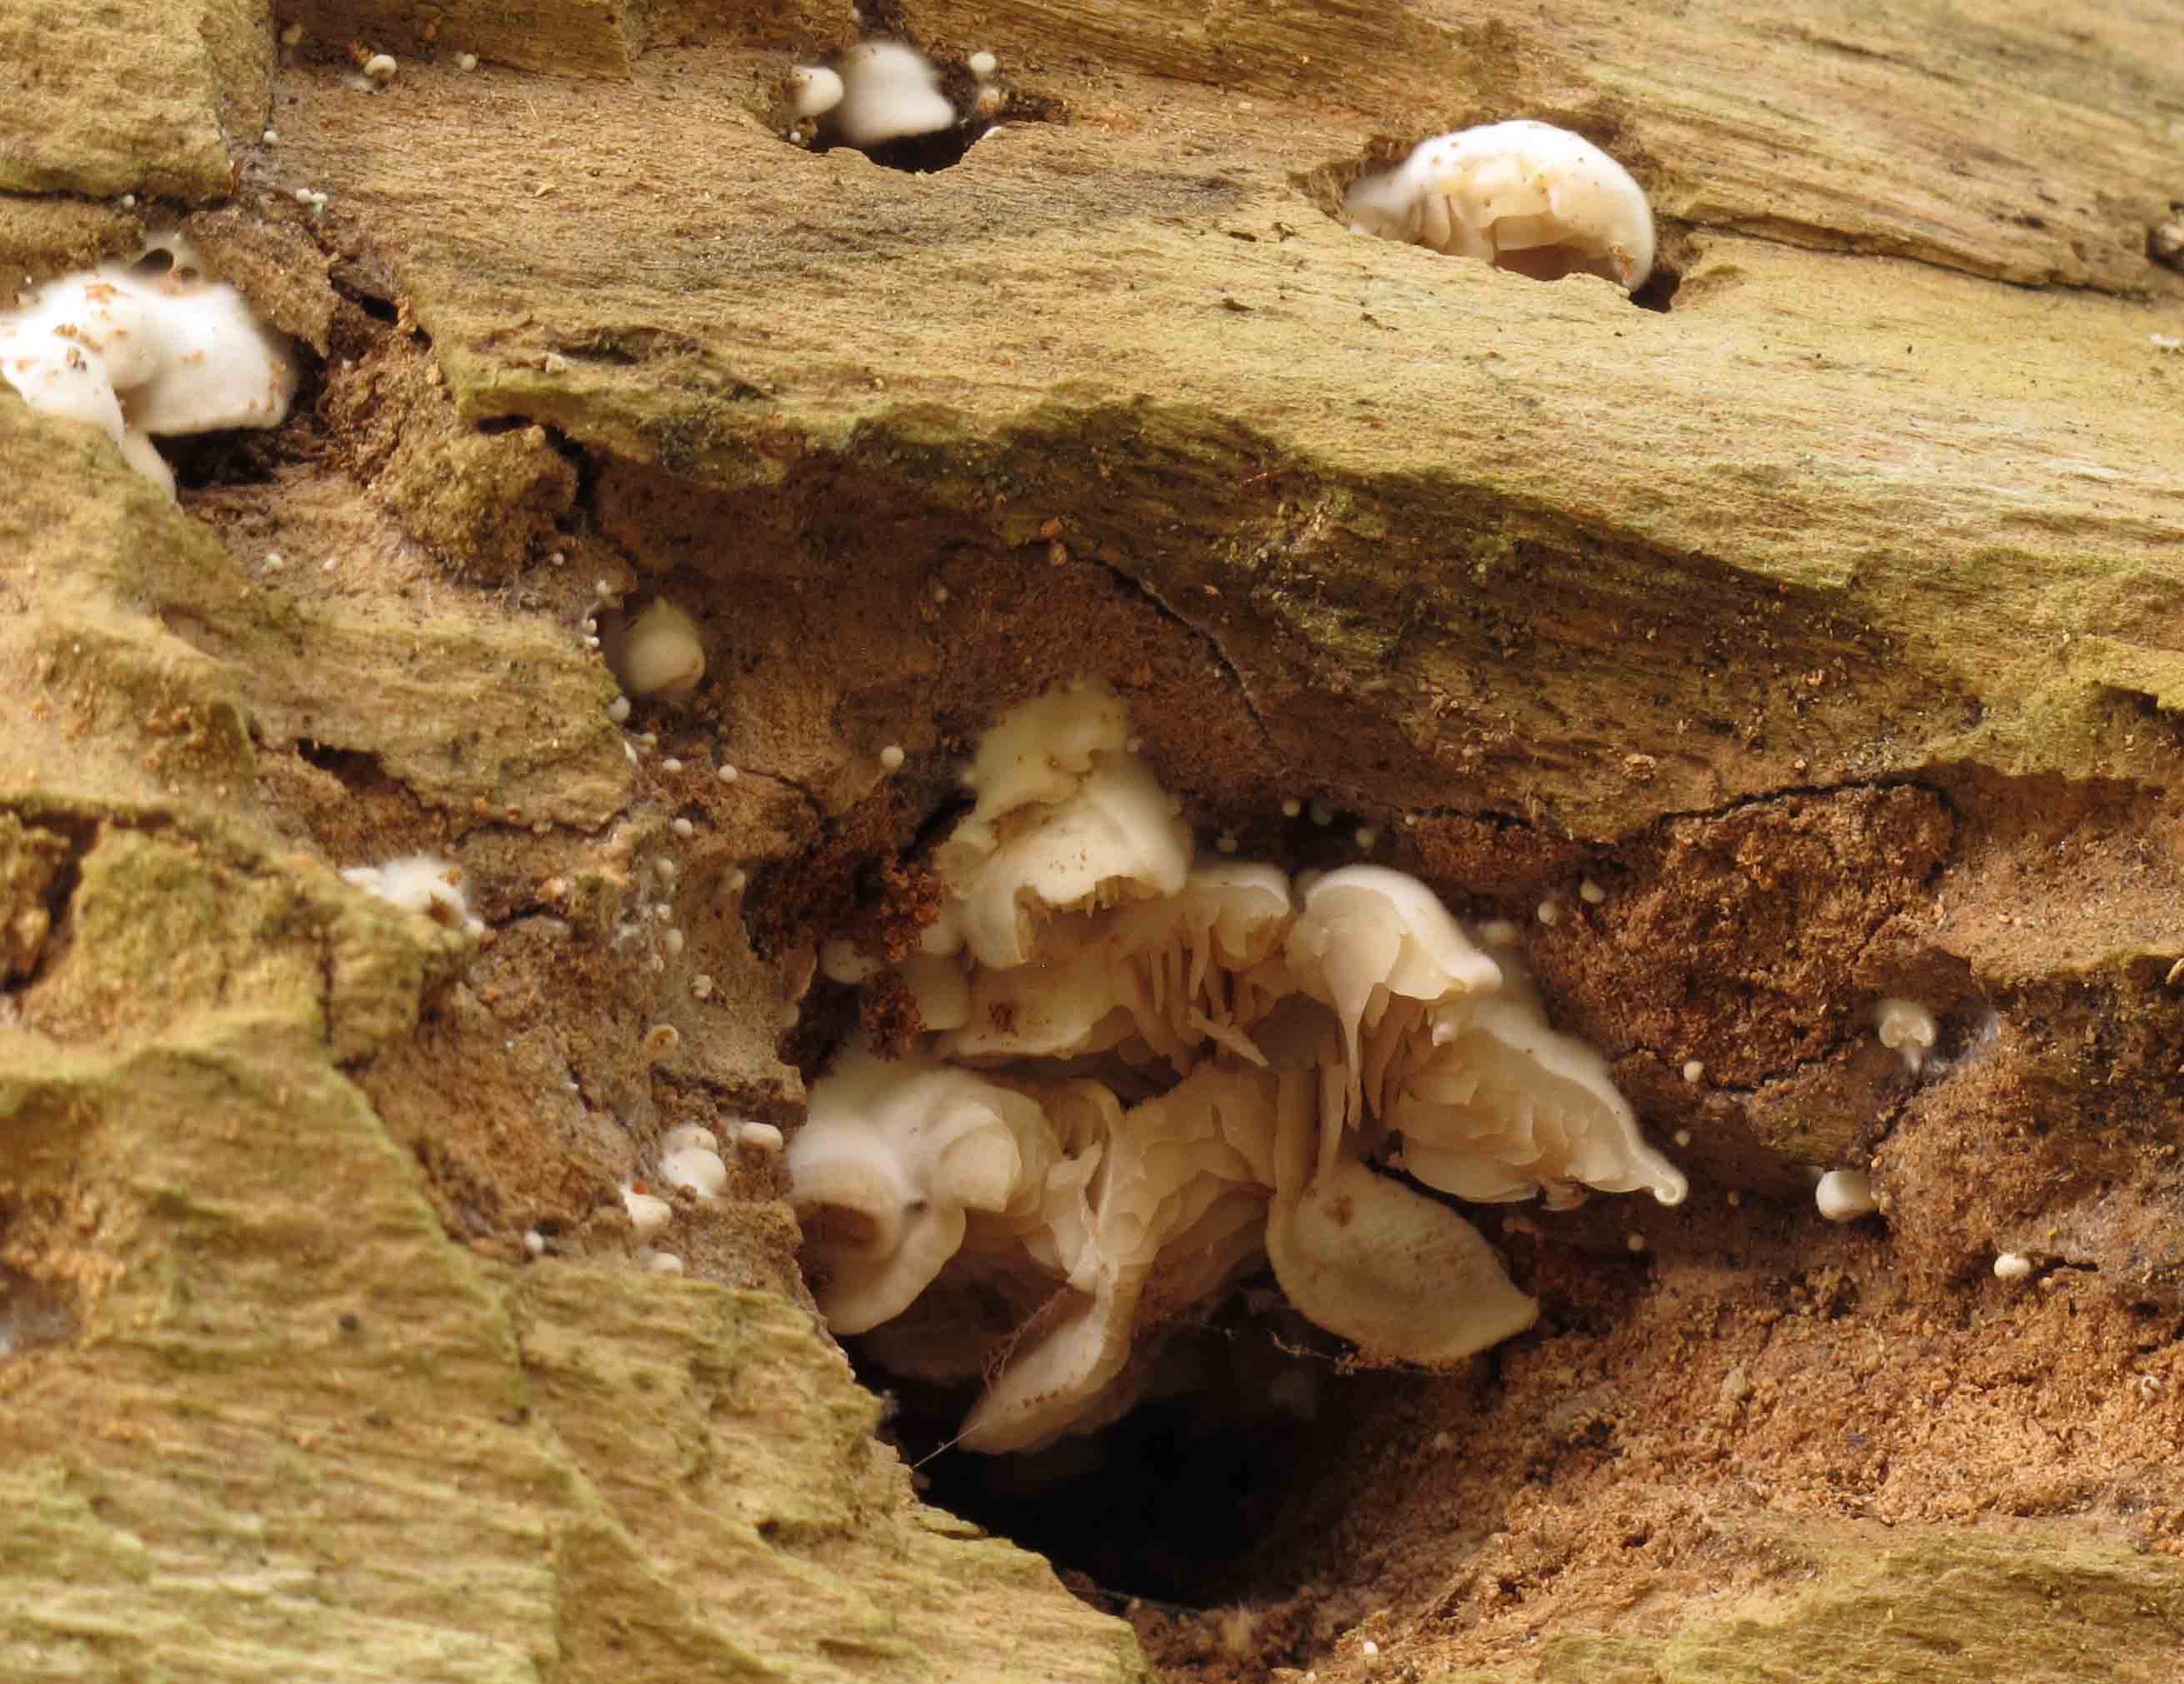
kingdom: Fungi
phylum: Basidiomycota
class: Agaricomycetes
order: Agaricales
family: Entolomataceae
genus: Clitopilus
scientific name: Clitopilus hobsonii
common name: Miller's oysterling
